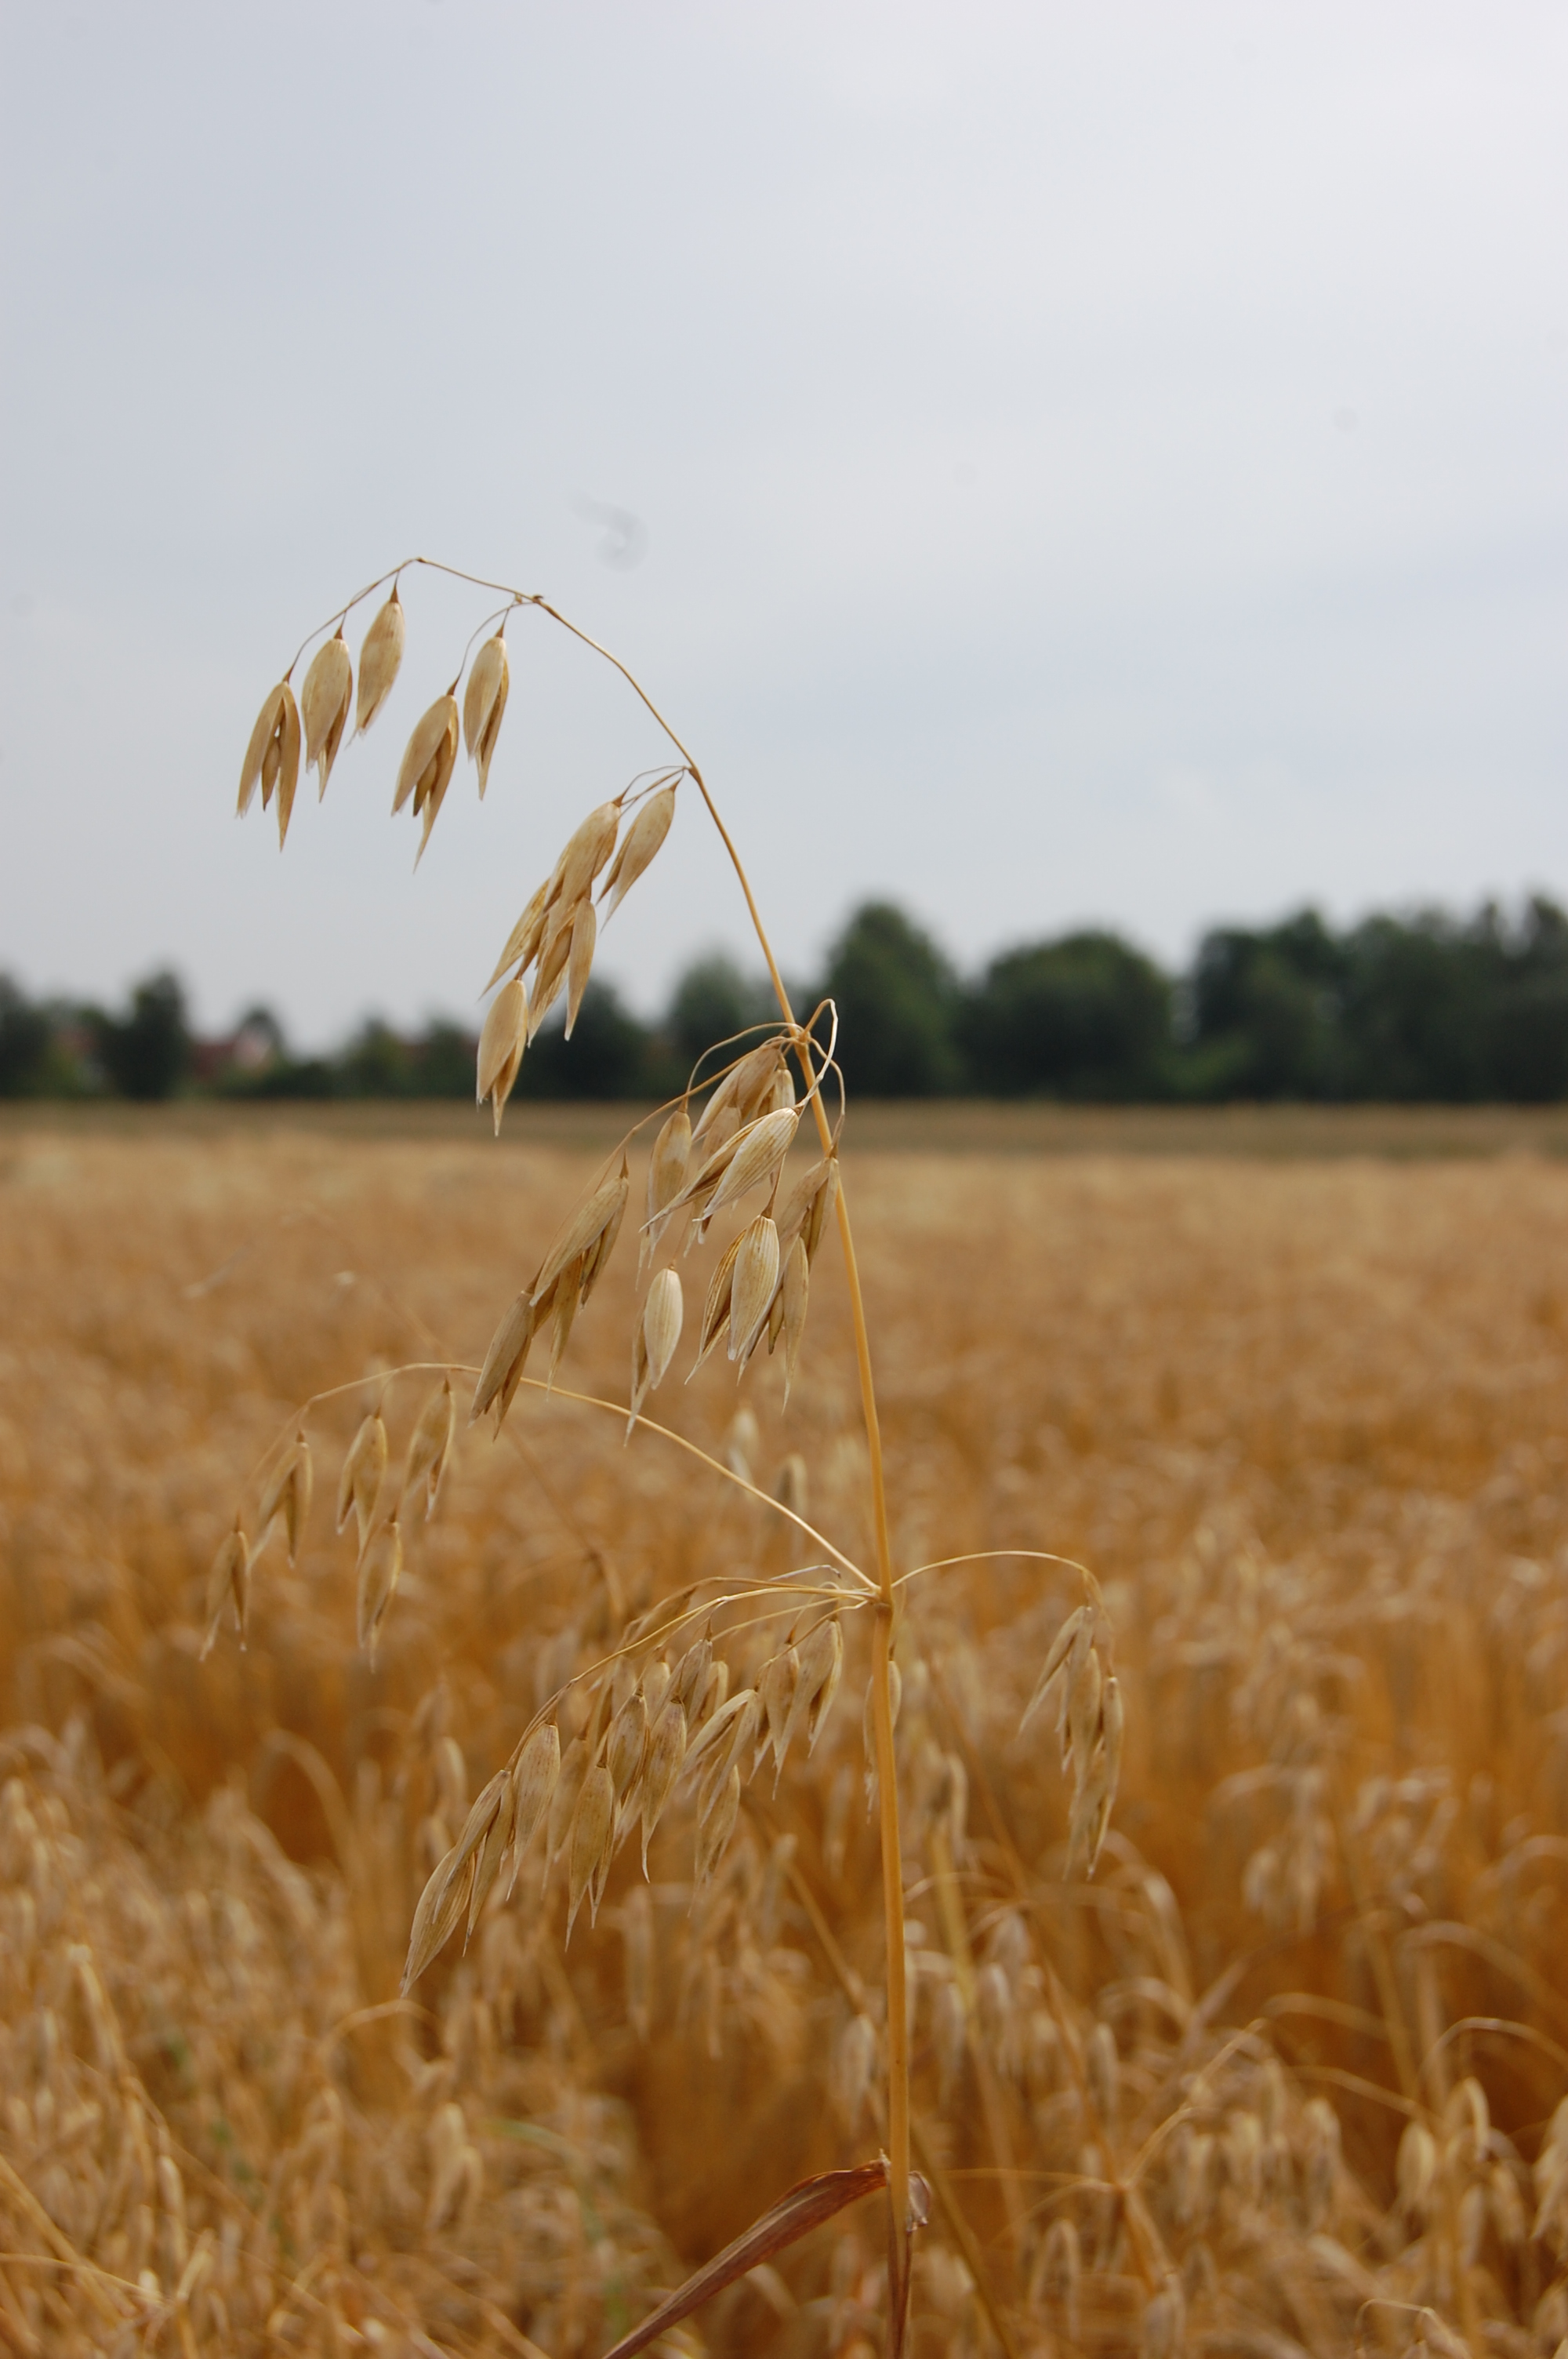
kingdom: Plantae
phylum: Tracheophyta
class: Liliopsida
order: Poales
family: Poaceae
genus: Avena
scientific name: Avena sativa
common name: Oat
